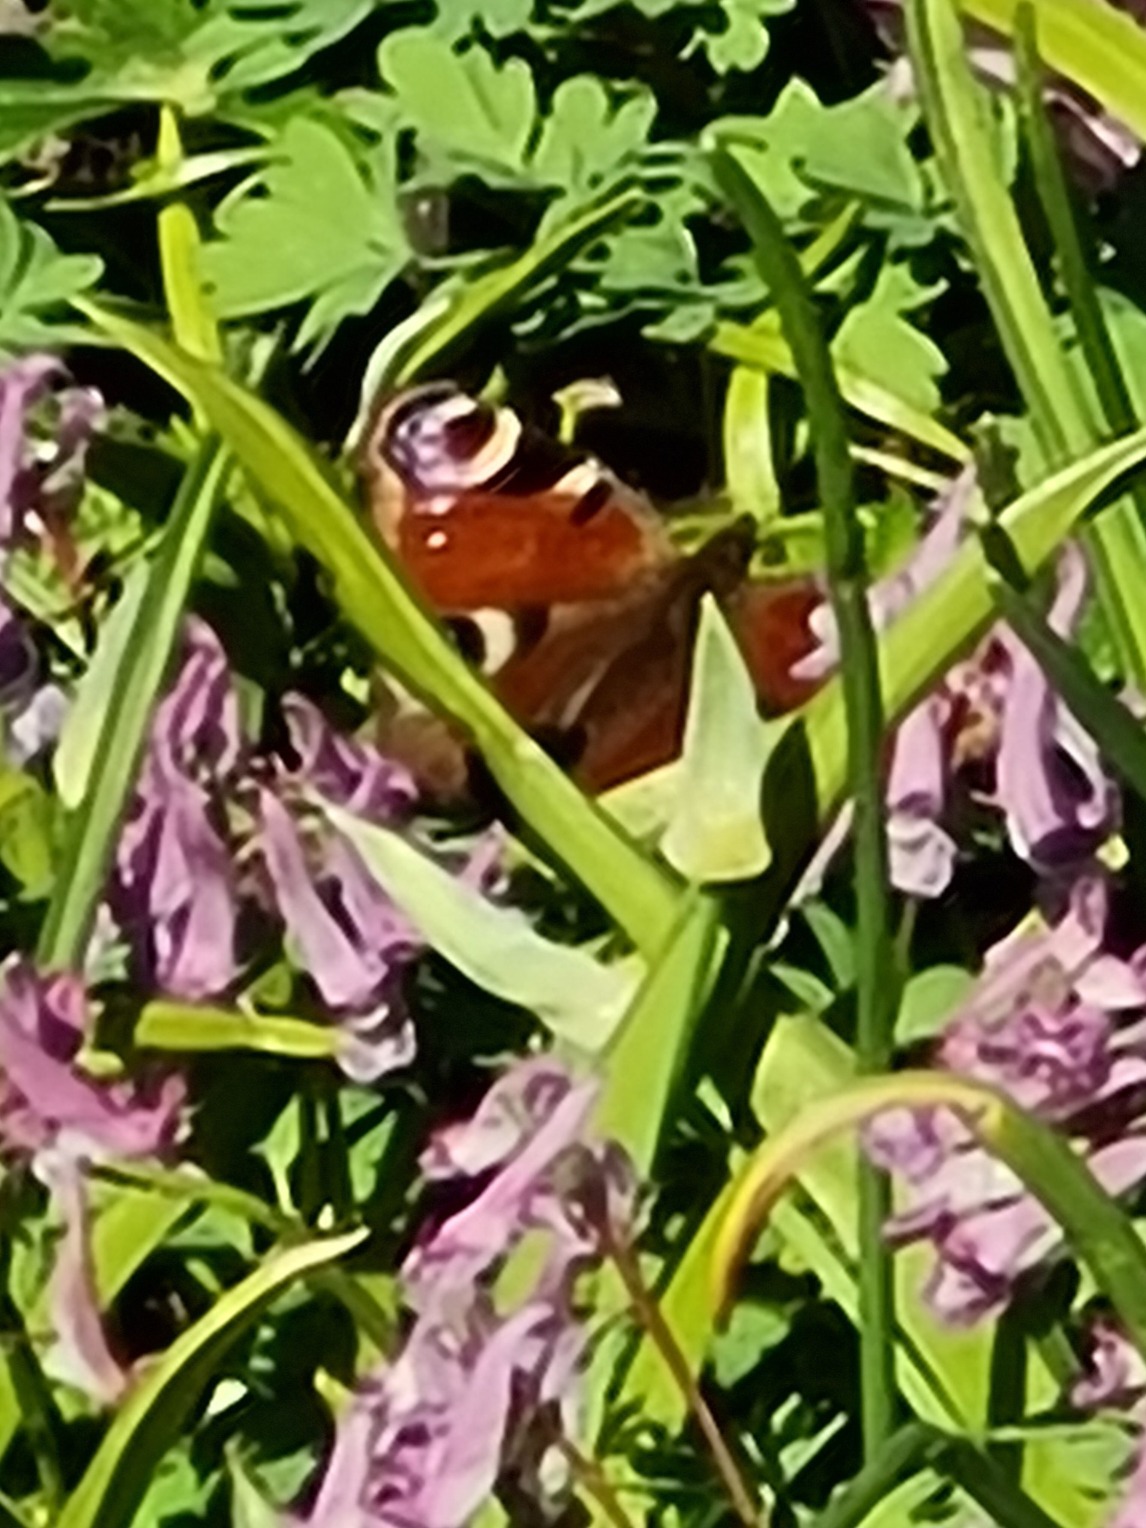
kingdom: Animalia
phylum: Arthropoda
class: Insecta
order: Lepidoptera
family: Nymphalidae
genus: Aglais
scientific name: Aglais io
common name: Dagpåfugleøje
